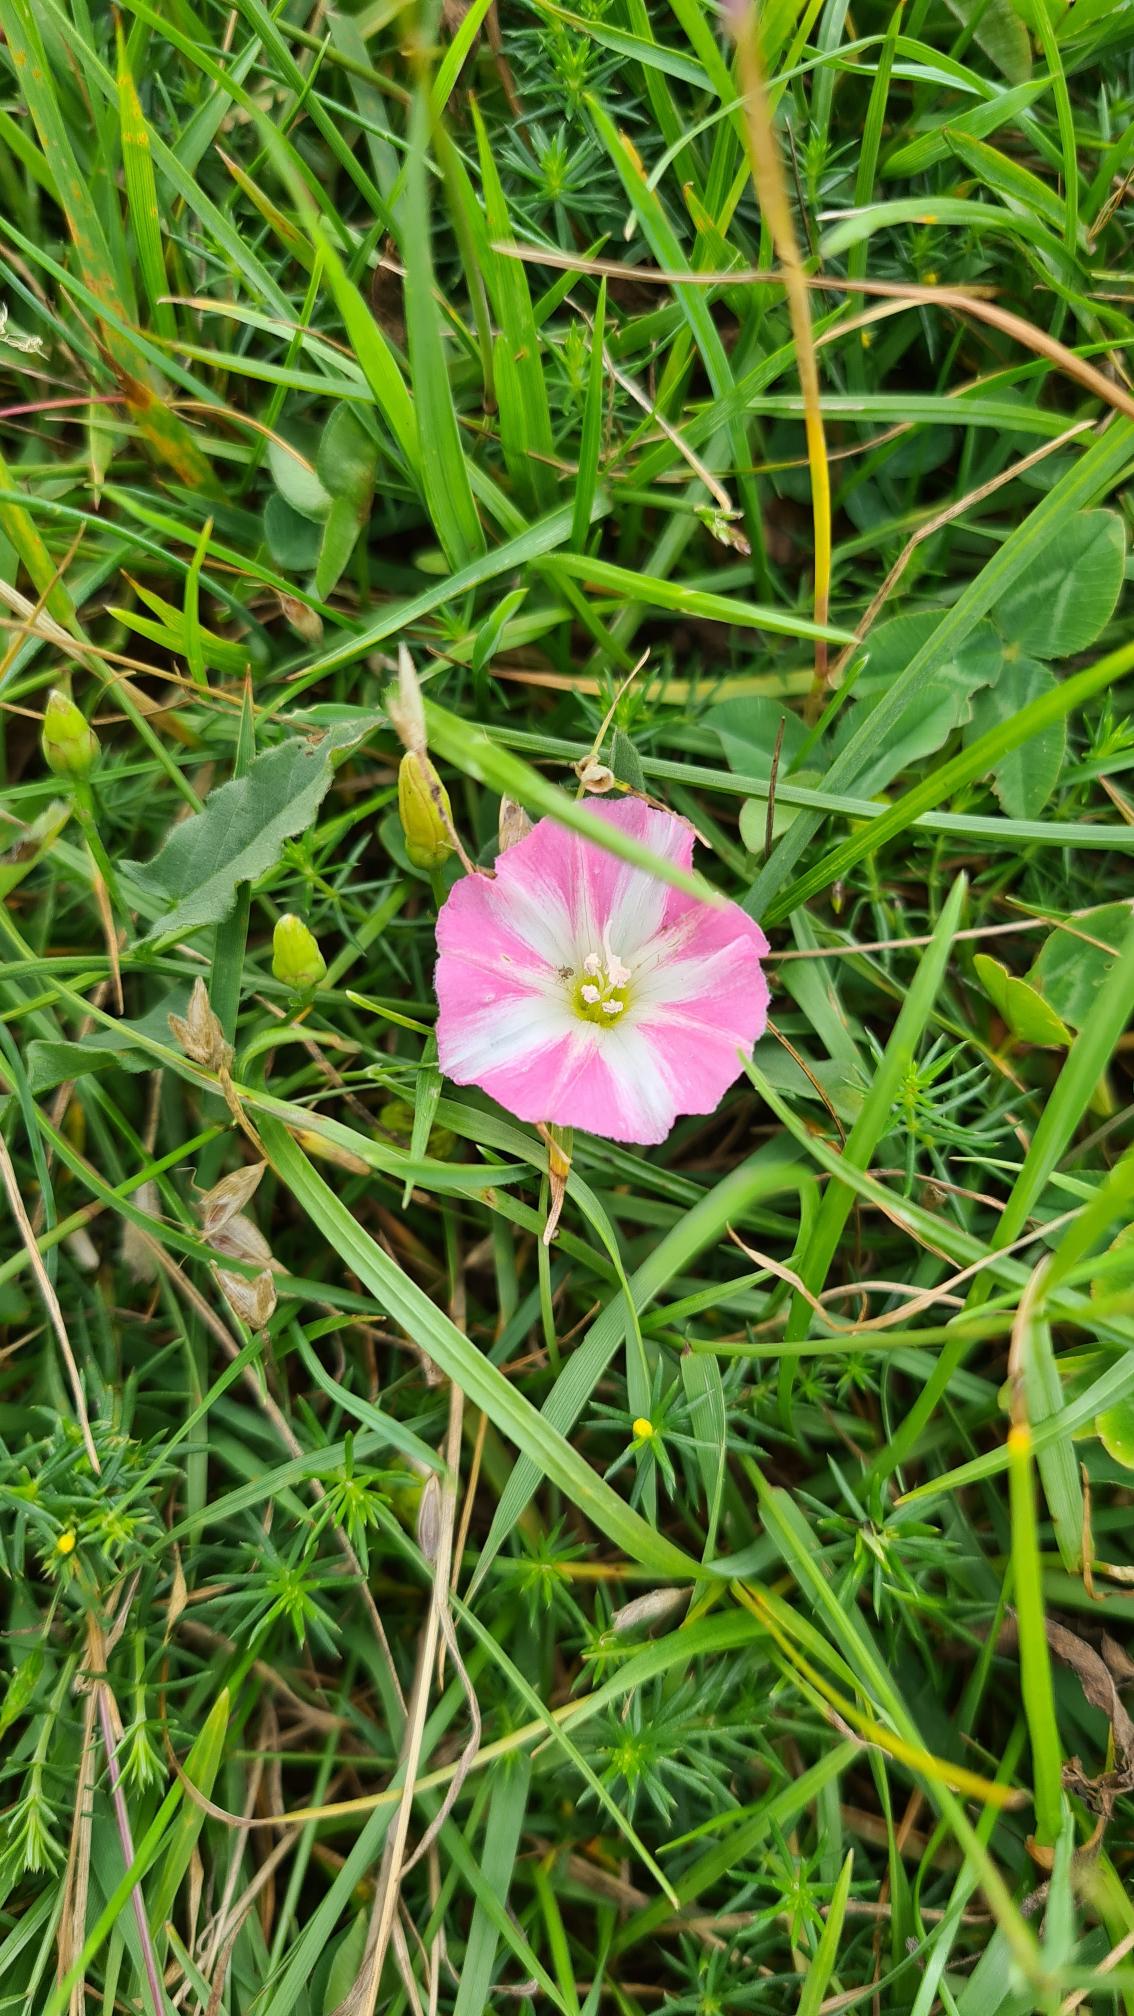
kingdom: Plantae
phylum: Tracheophyta
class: Magnoliopsida
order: Solanales
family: Convolvulaceae
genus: Convolvulus
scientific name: Convolvulus arvensis
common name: Ager-snerle
